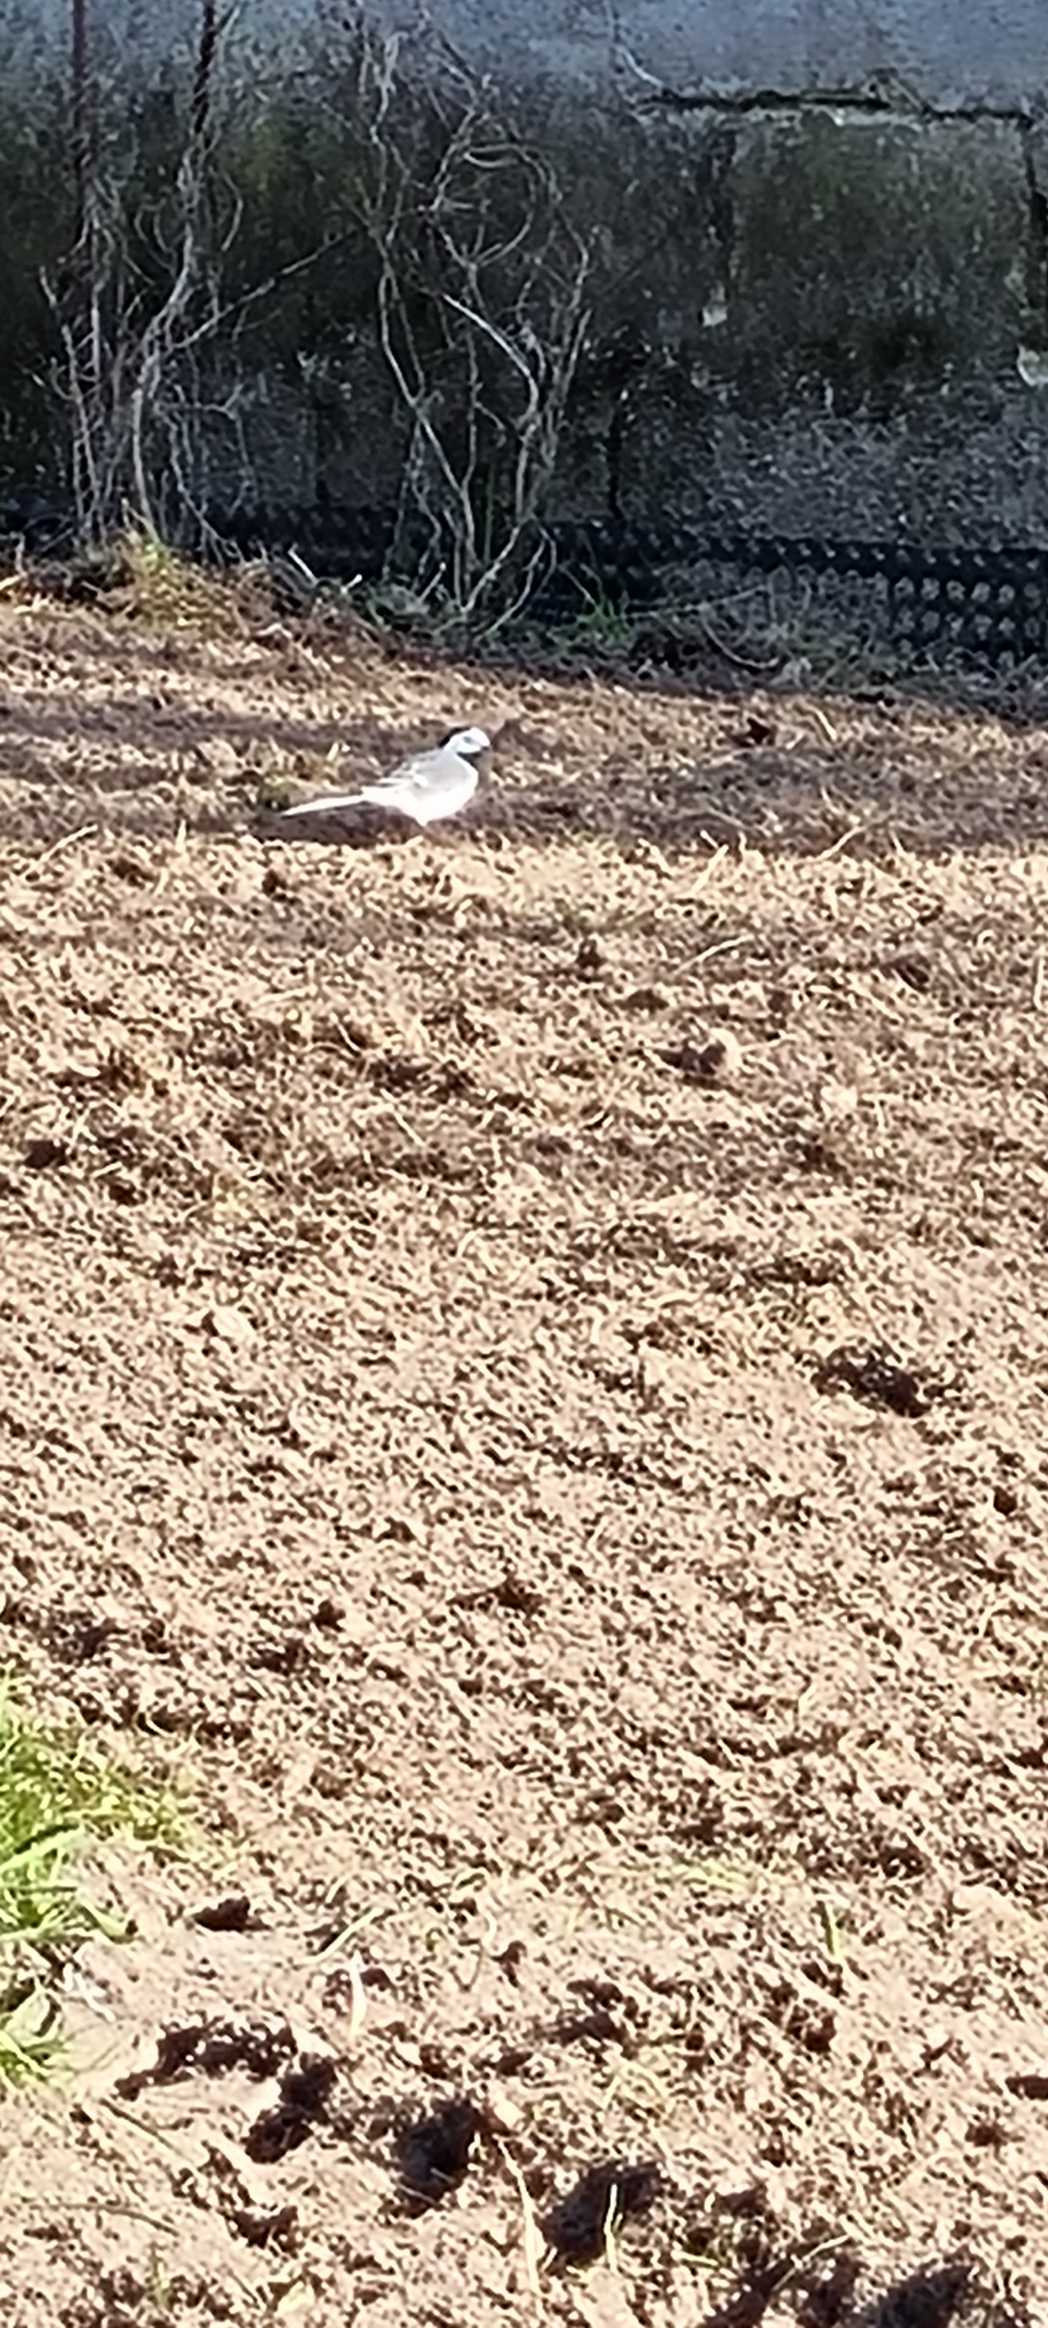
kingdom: Animalia
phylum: Chordata
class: Aves
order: Passeriformes
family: Motacillidae
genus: Motacilla
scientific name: Motacilla alba
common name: Hvid vipstjert
